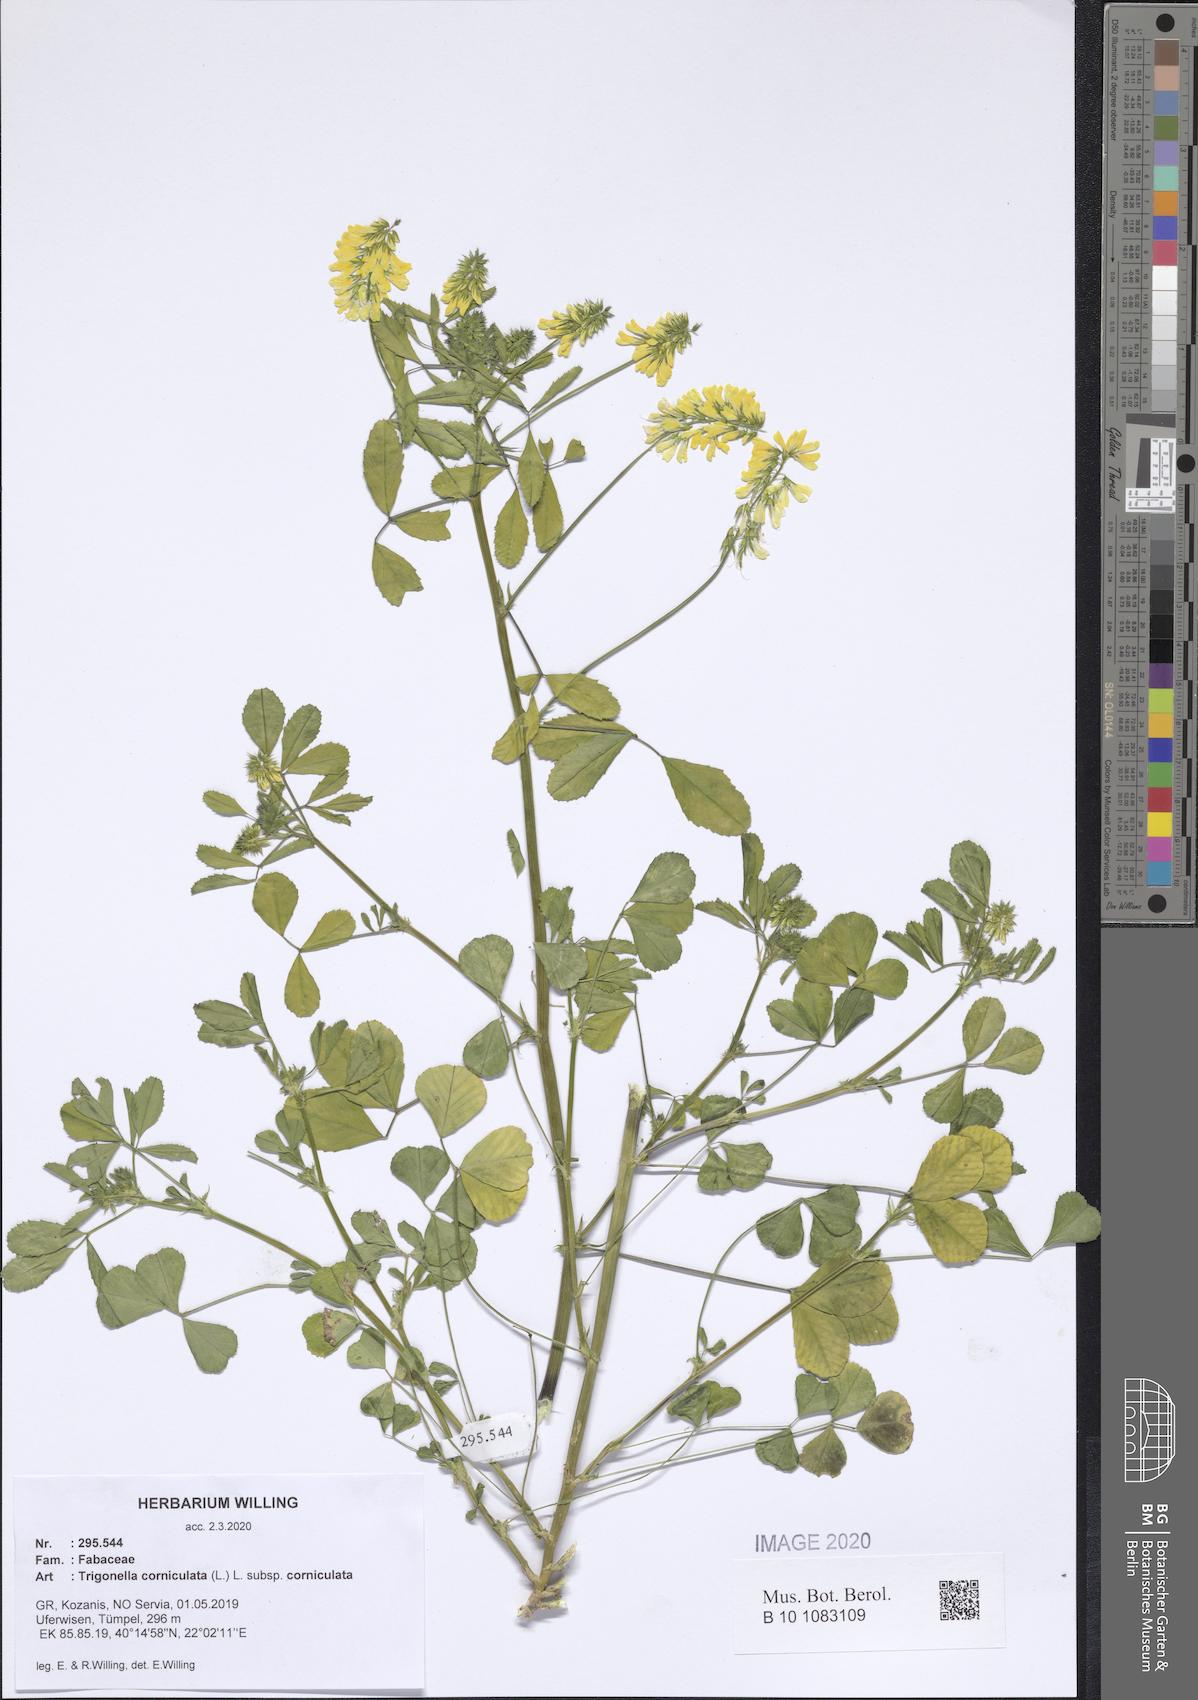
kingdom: Plantae
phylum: Tracheophyta
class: Magnoliopsida
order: Fabales
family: Fabaceae
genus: Trigonella
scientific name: Trigonella corniculata
